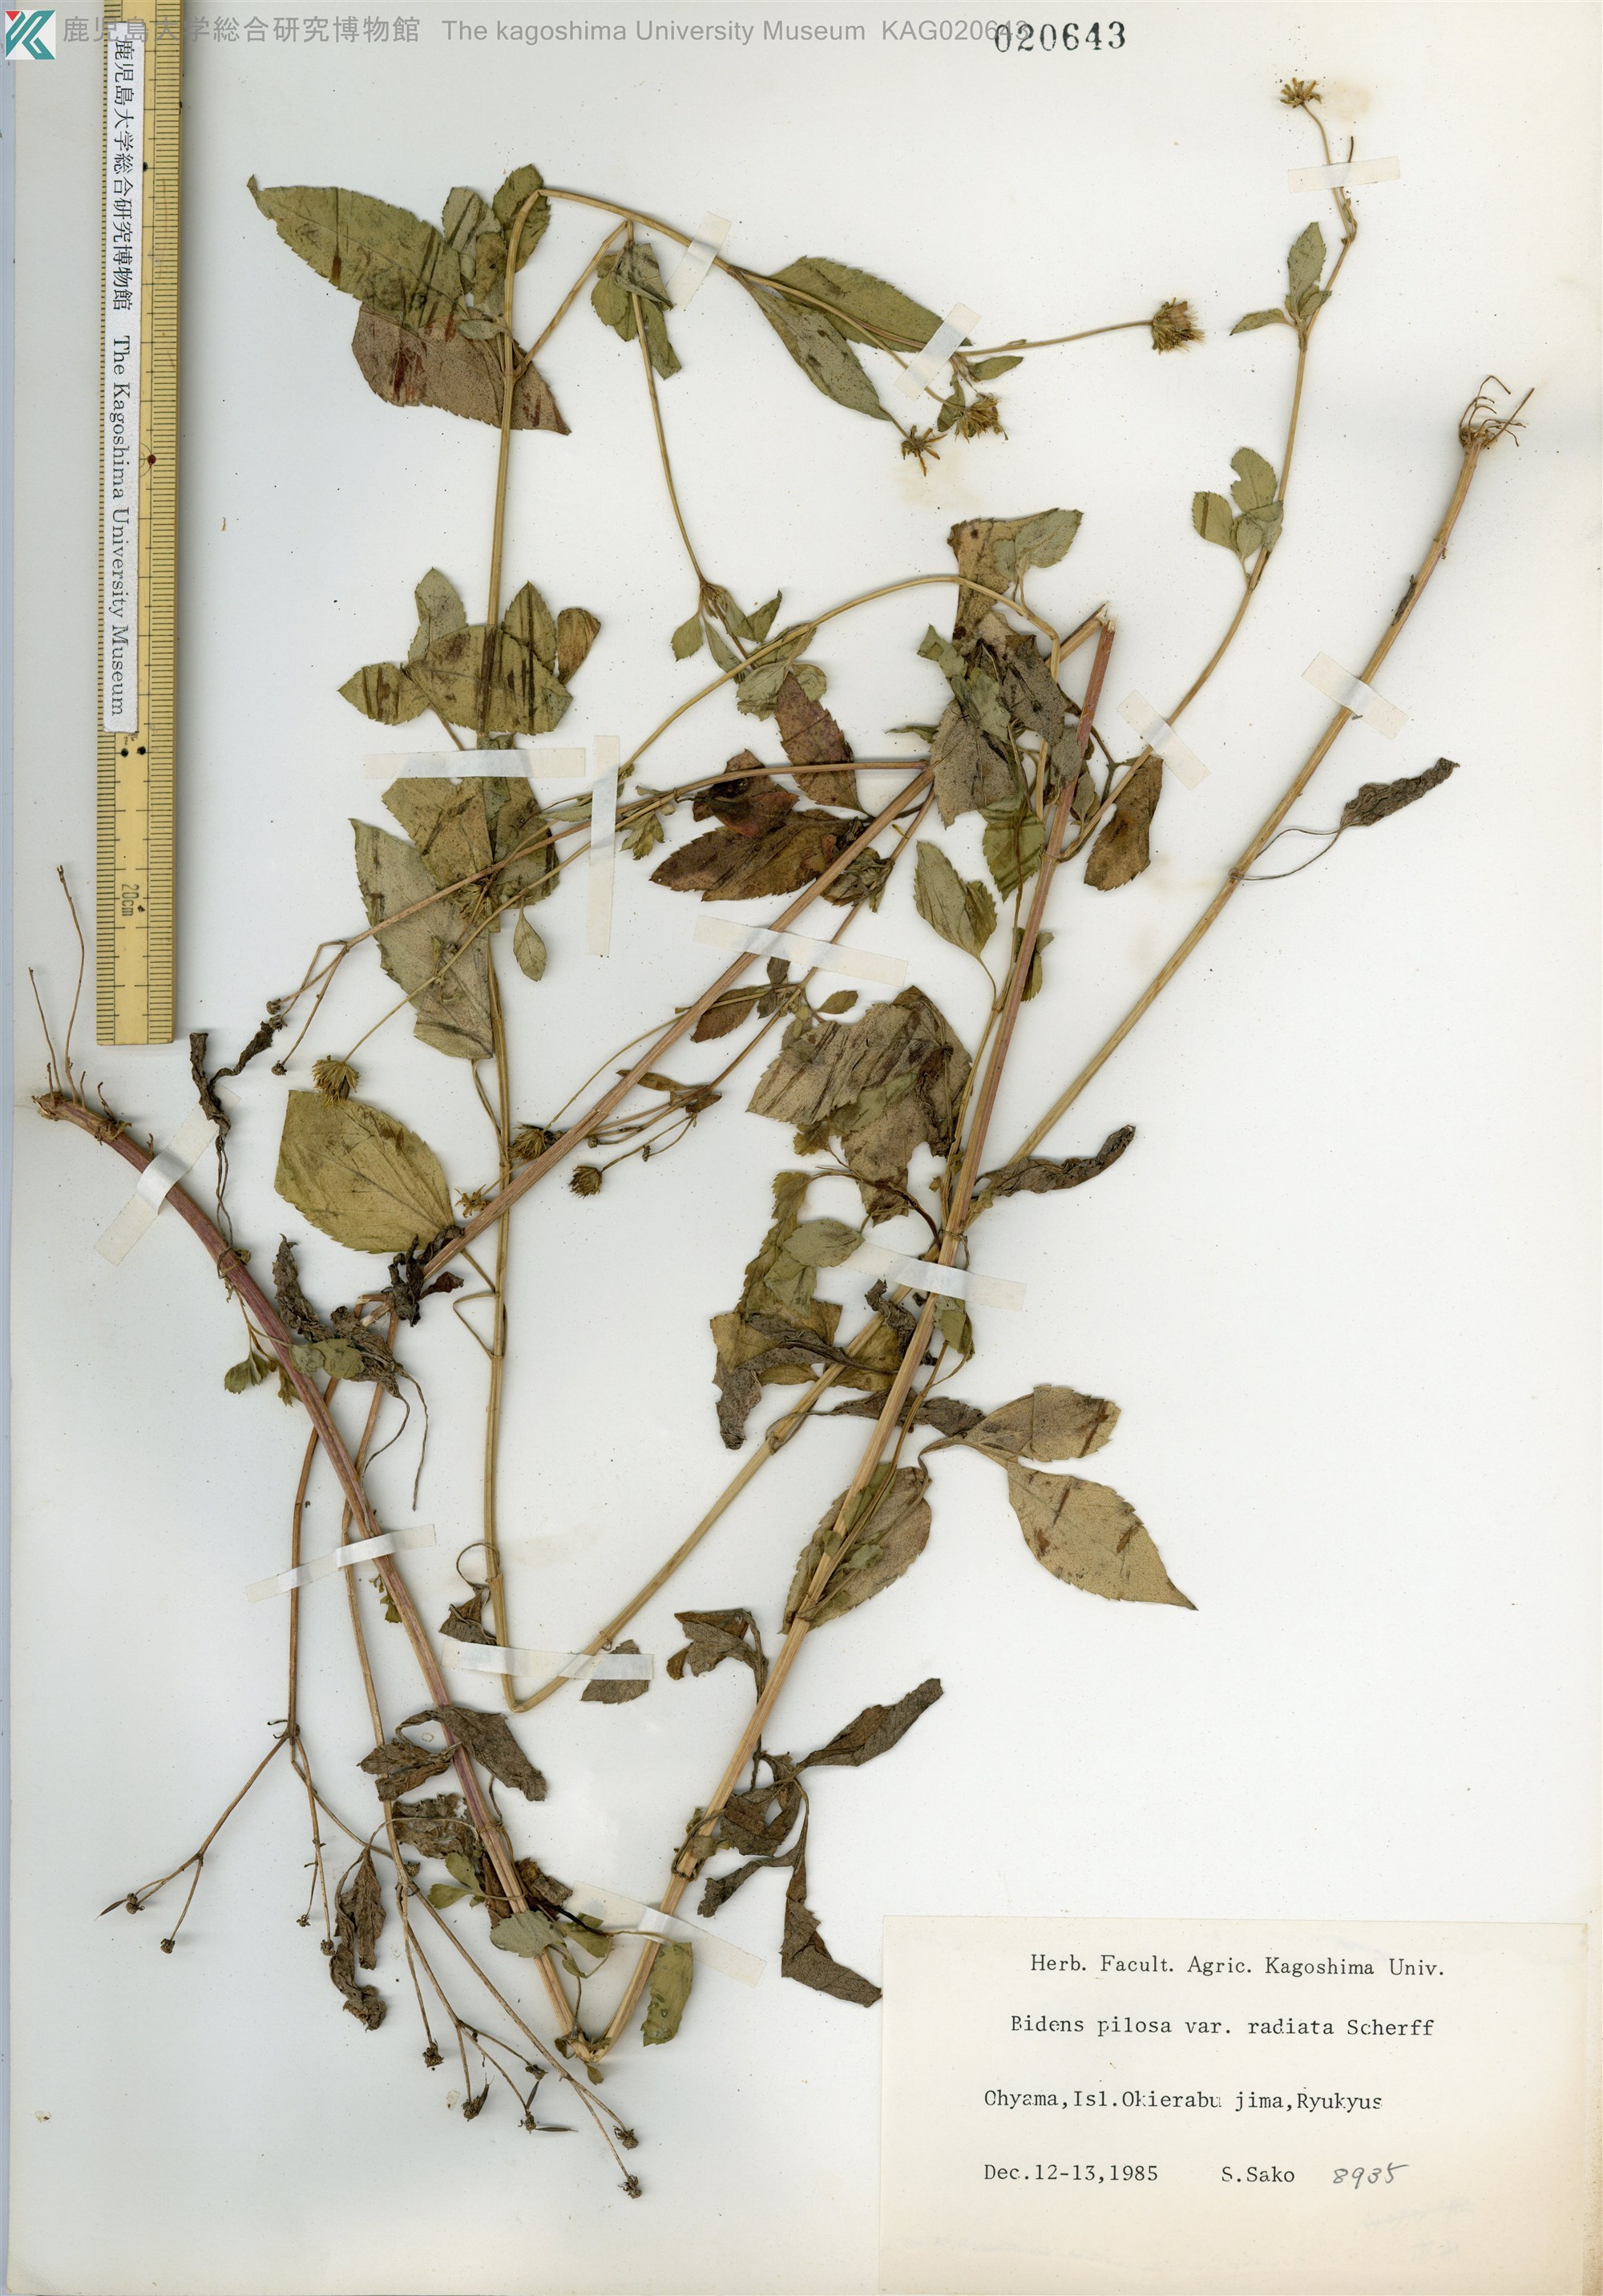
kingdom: Plantae
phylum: Tracheophyta
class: Magnoliopsida
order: Asterales
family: Asteraceae
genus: Bidens
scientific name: Bidens pilosa
